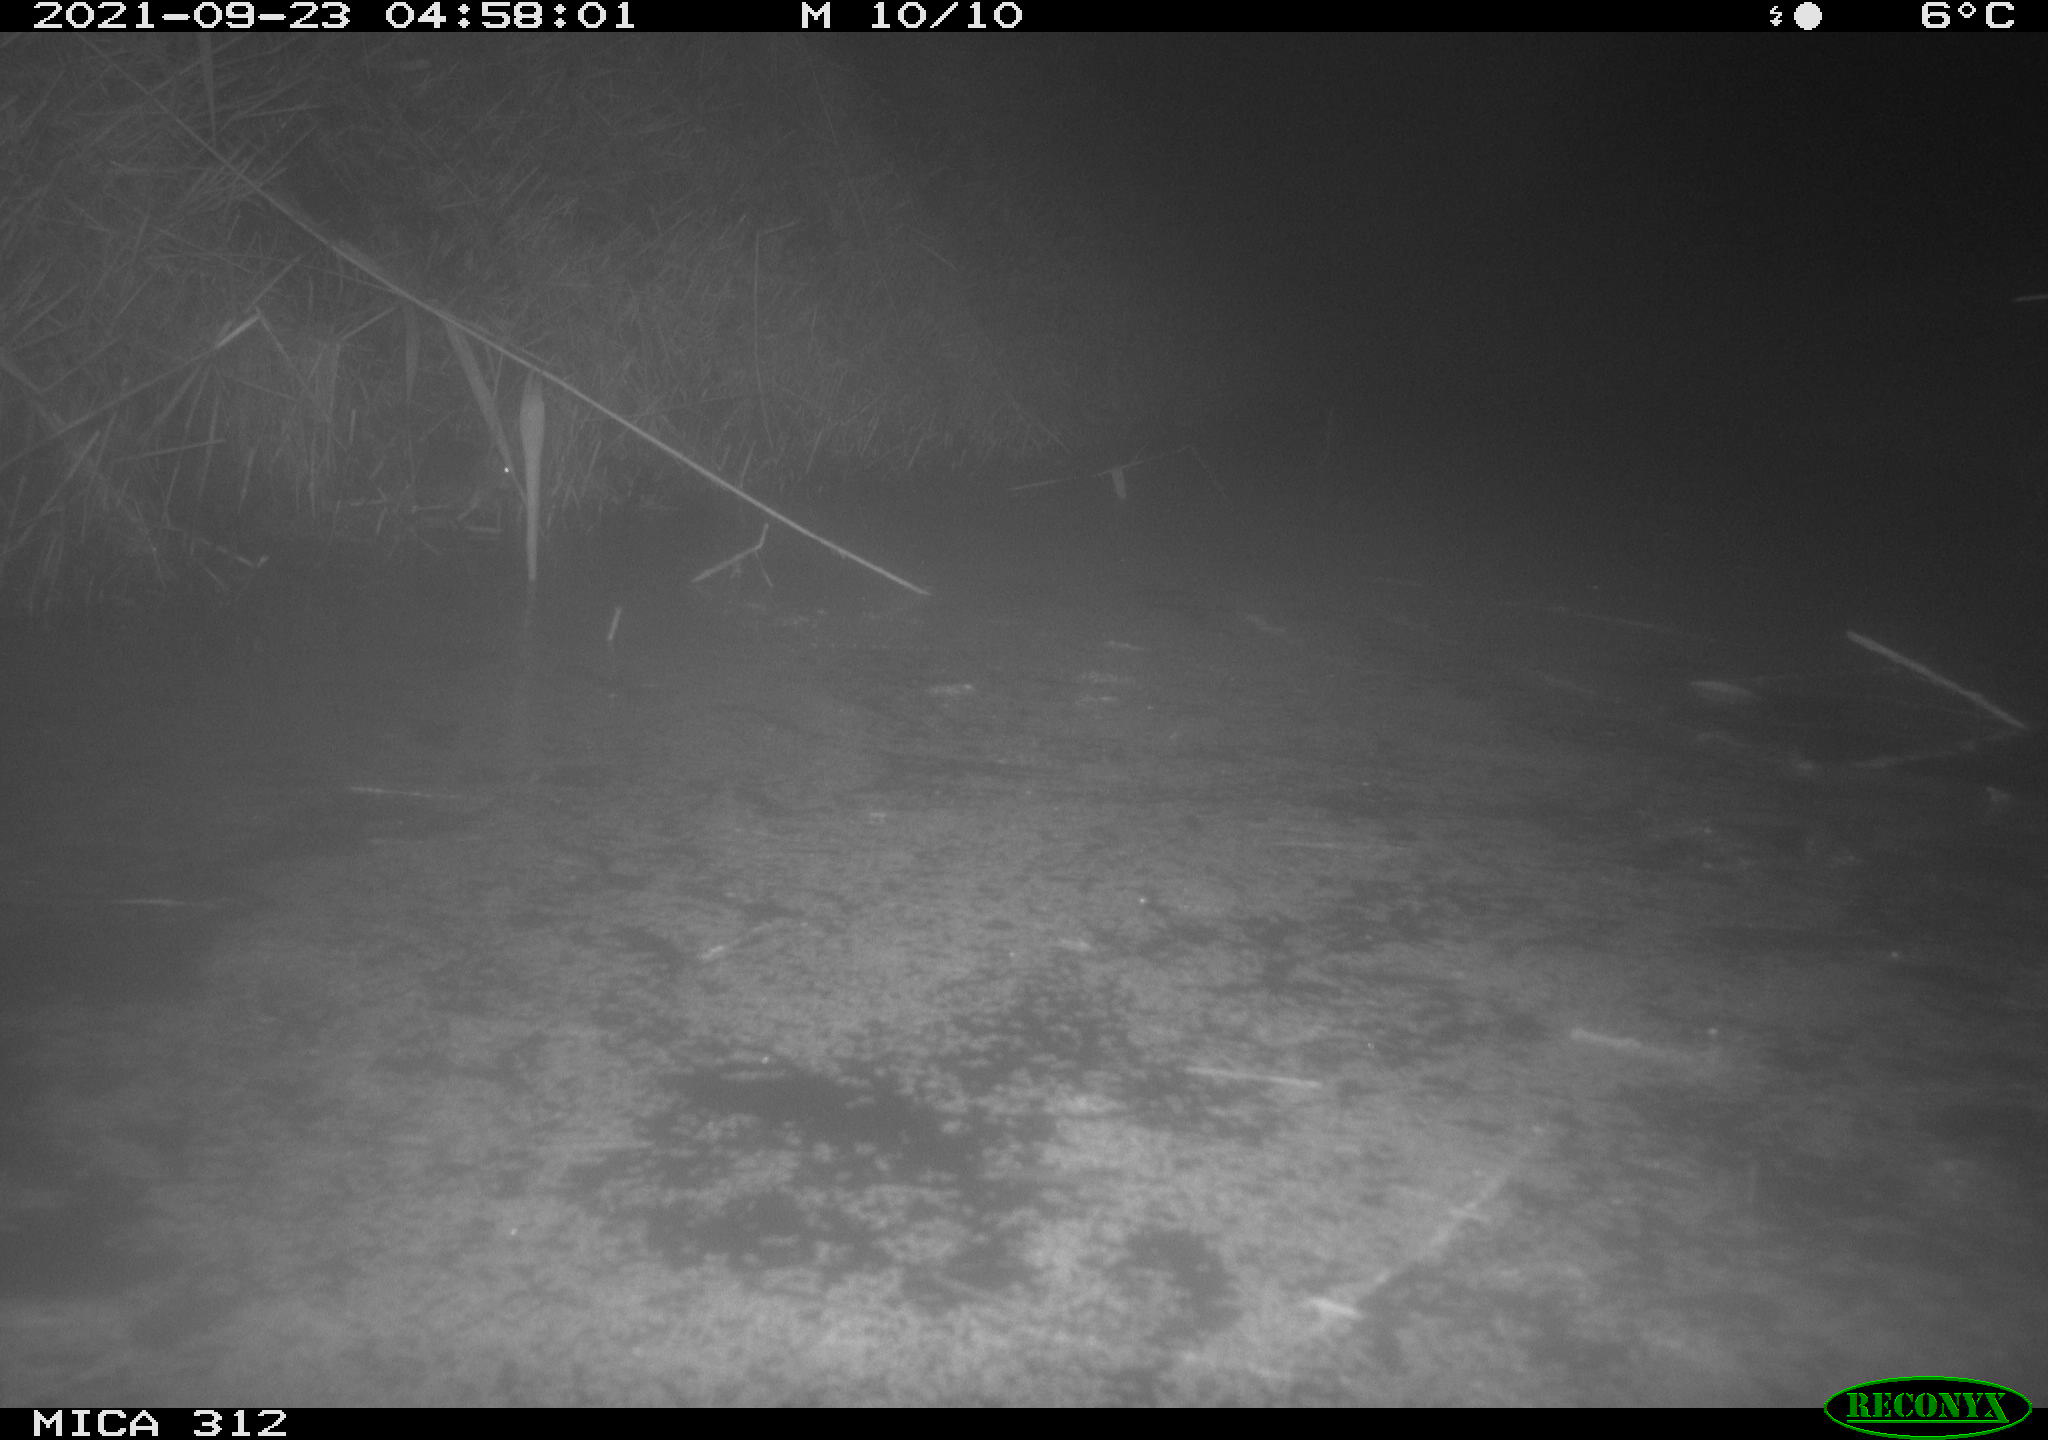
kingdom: Animalia
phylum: Chordata
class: Mammalia
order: Rodentia
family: Muridae
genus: Rattus
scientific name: Rattus norvegicus
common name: Brown rat
